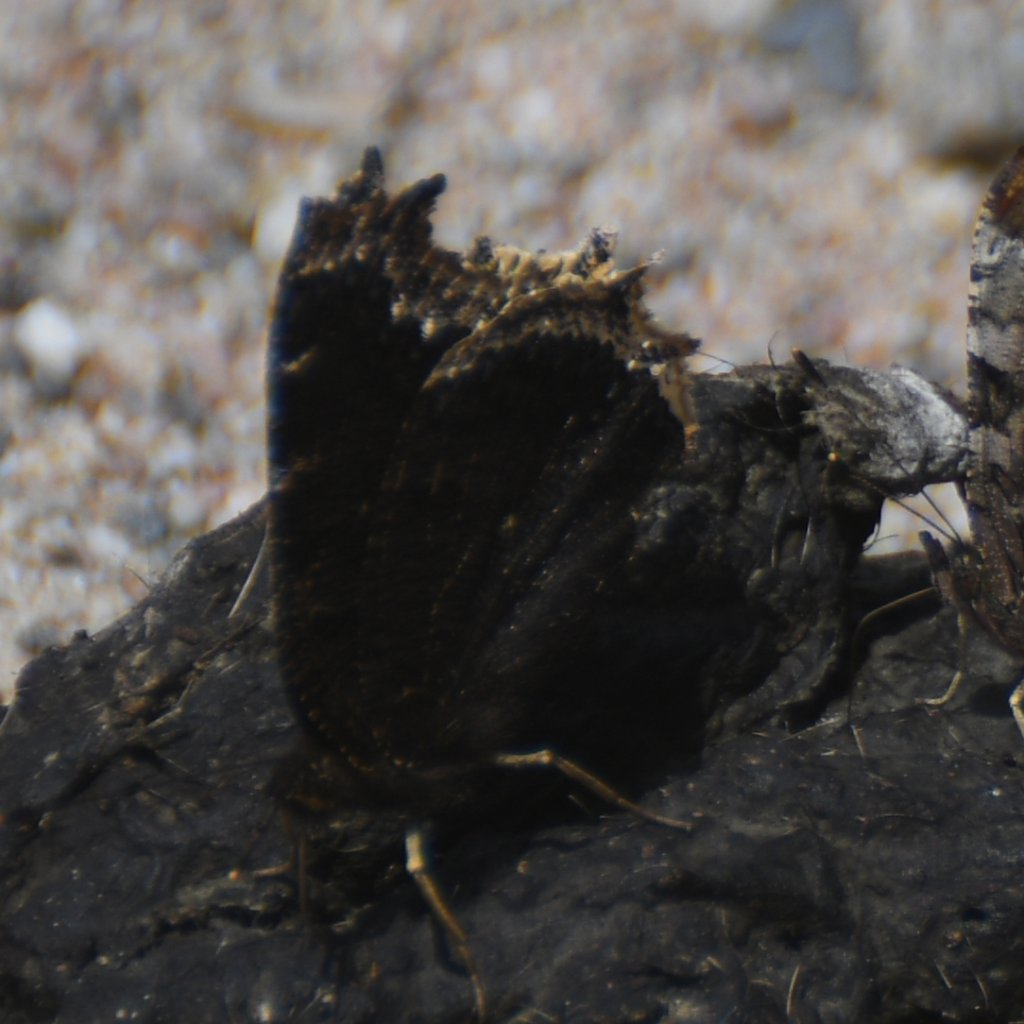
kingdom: Animalia
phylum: Arthropoda
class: Insecta
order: Lepidoptera
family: Nymphalidae
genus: Nymphalis
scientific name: Nymphalis antiopa
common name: Mourning Cloak
